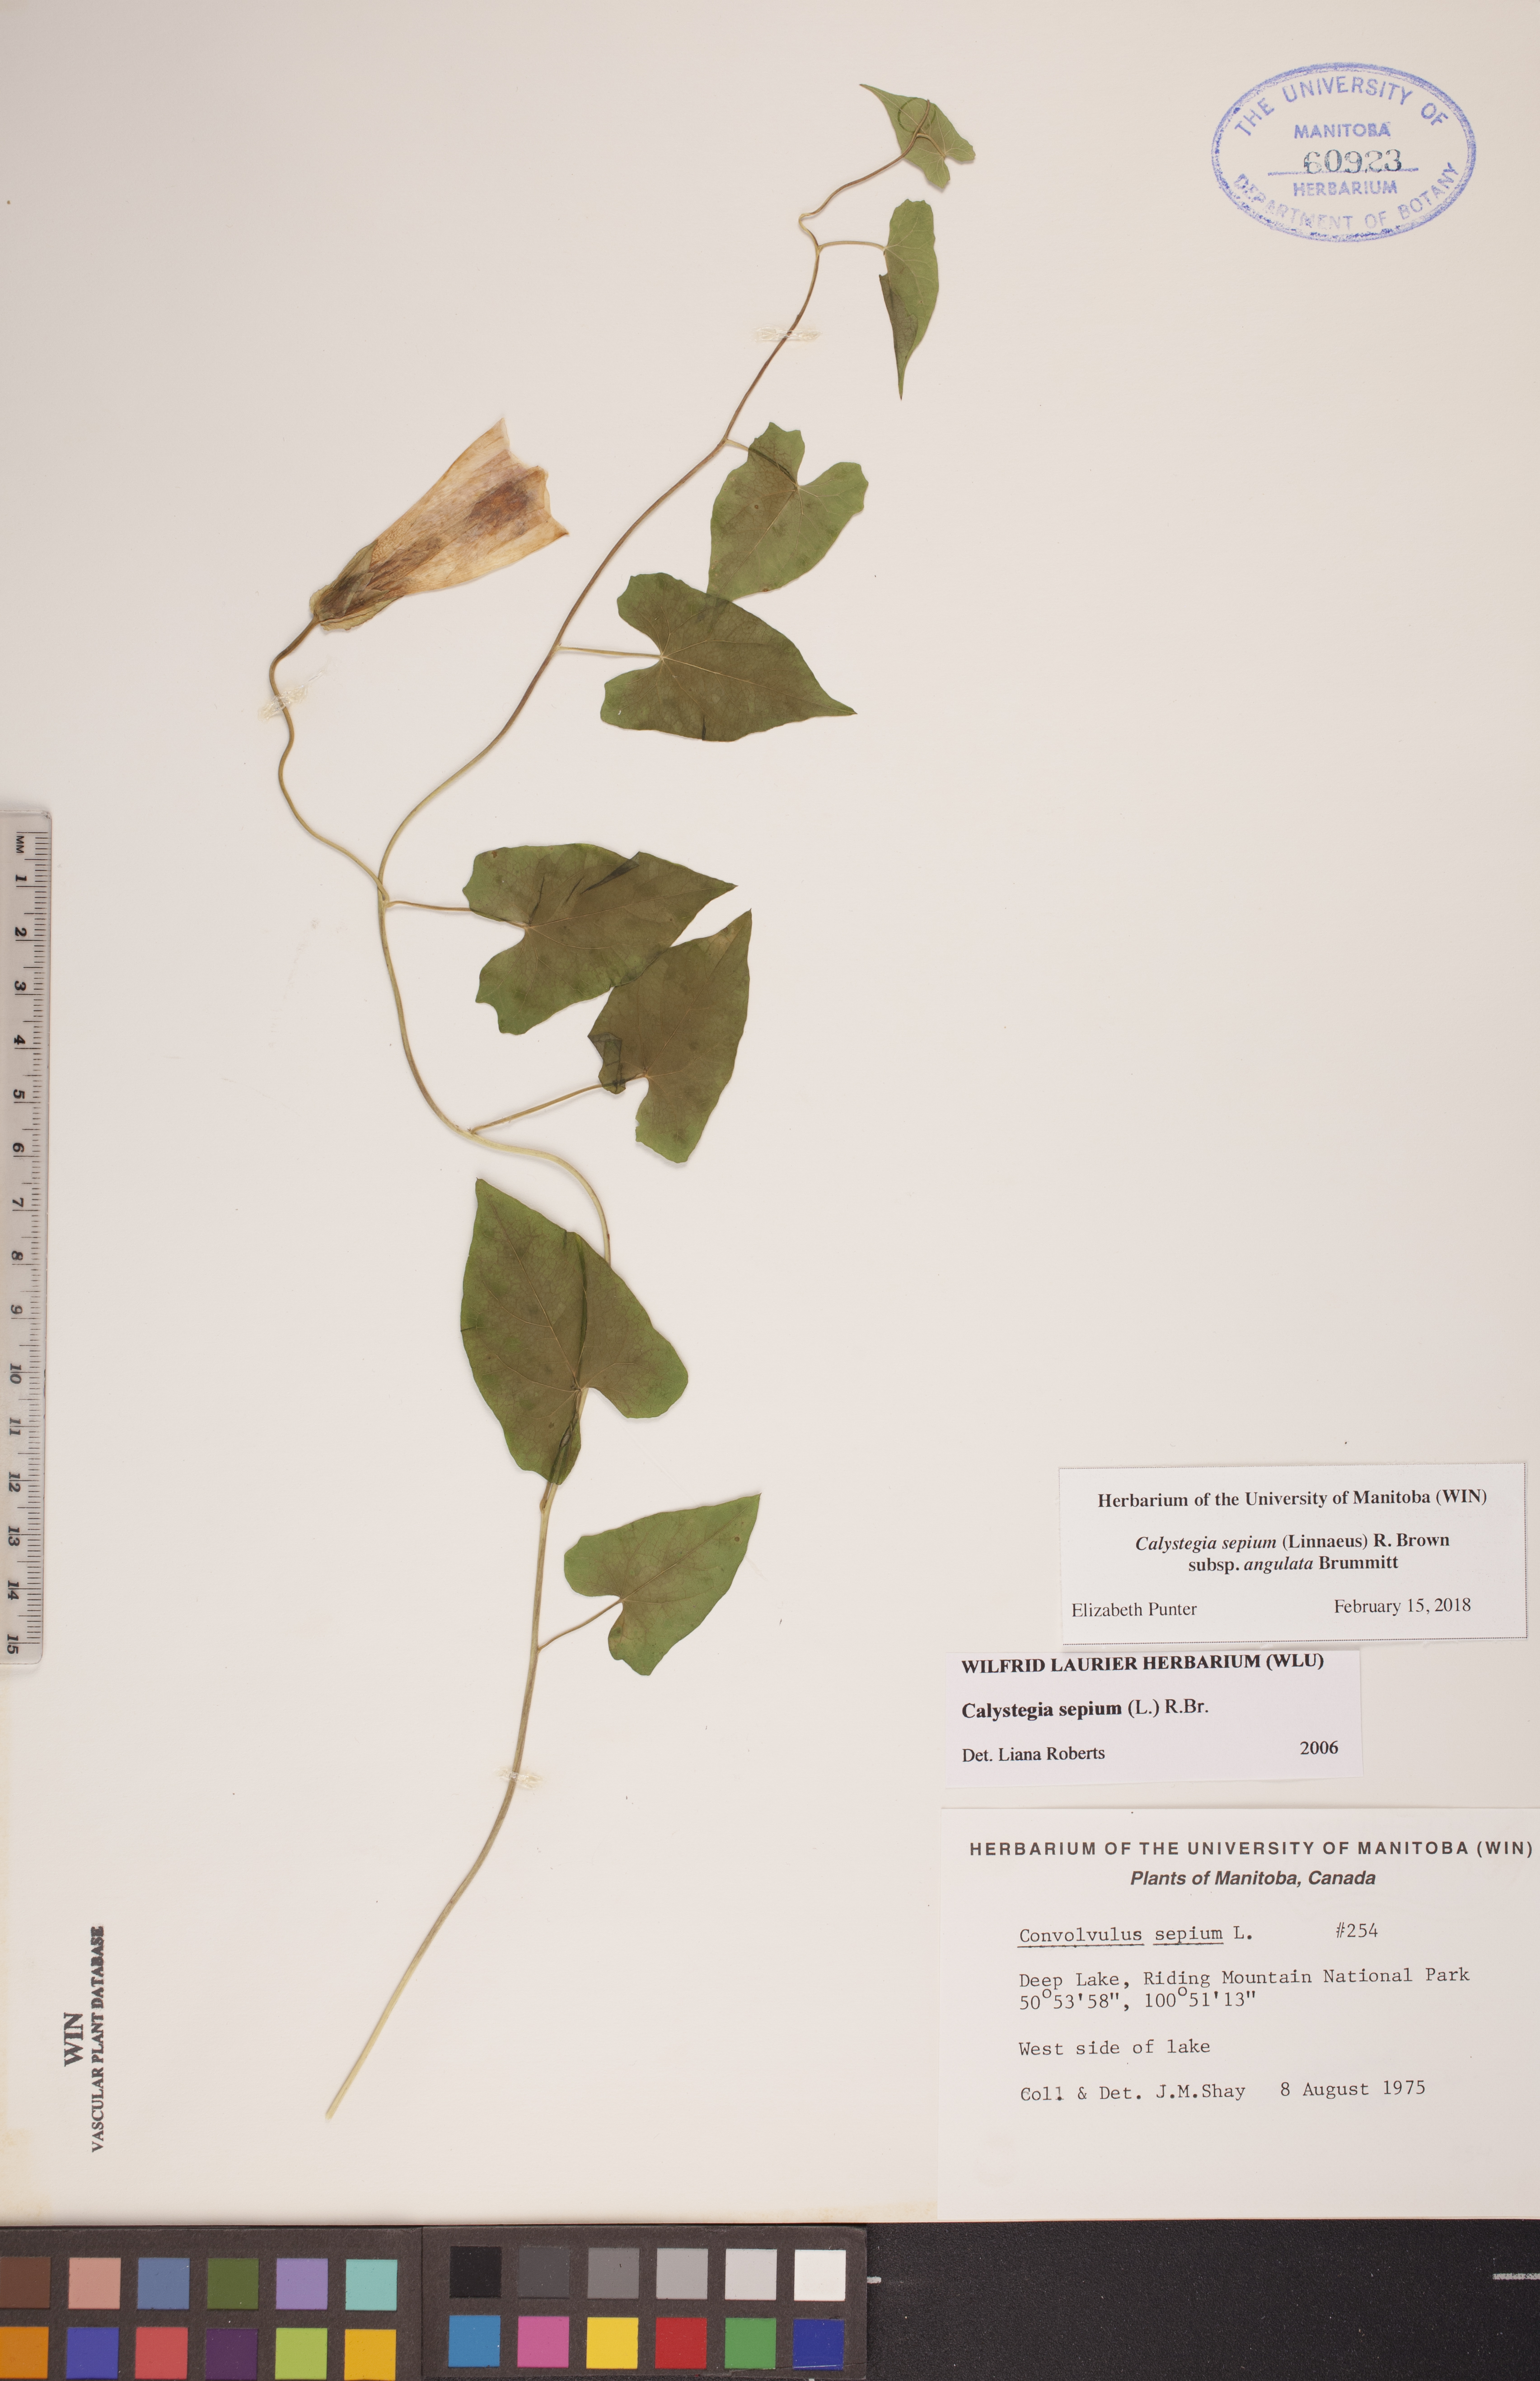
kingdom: Plantae
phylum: Tracheophyta
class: Magnoliopsida
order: Solanales
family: Convolvulaceae
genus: Calystegia
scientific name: Calystegia sepium
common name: Hedge bindweed
